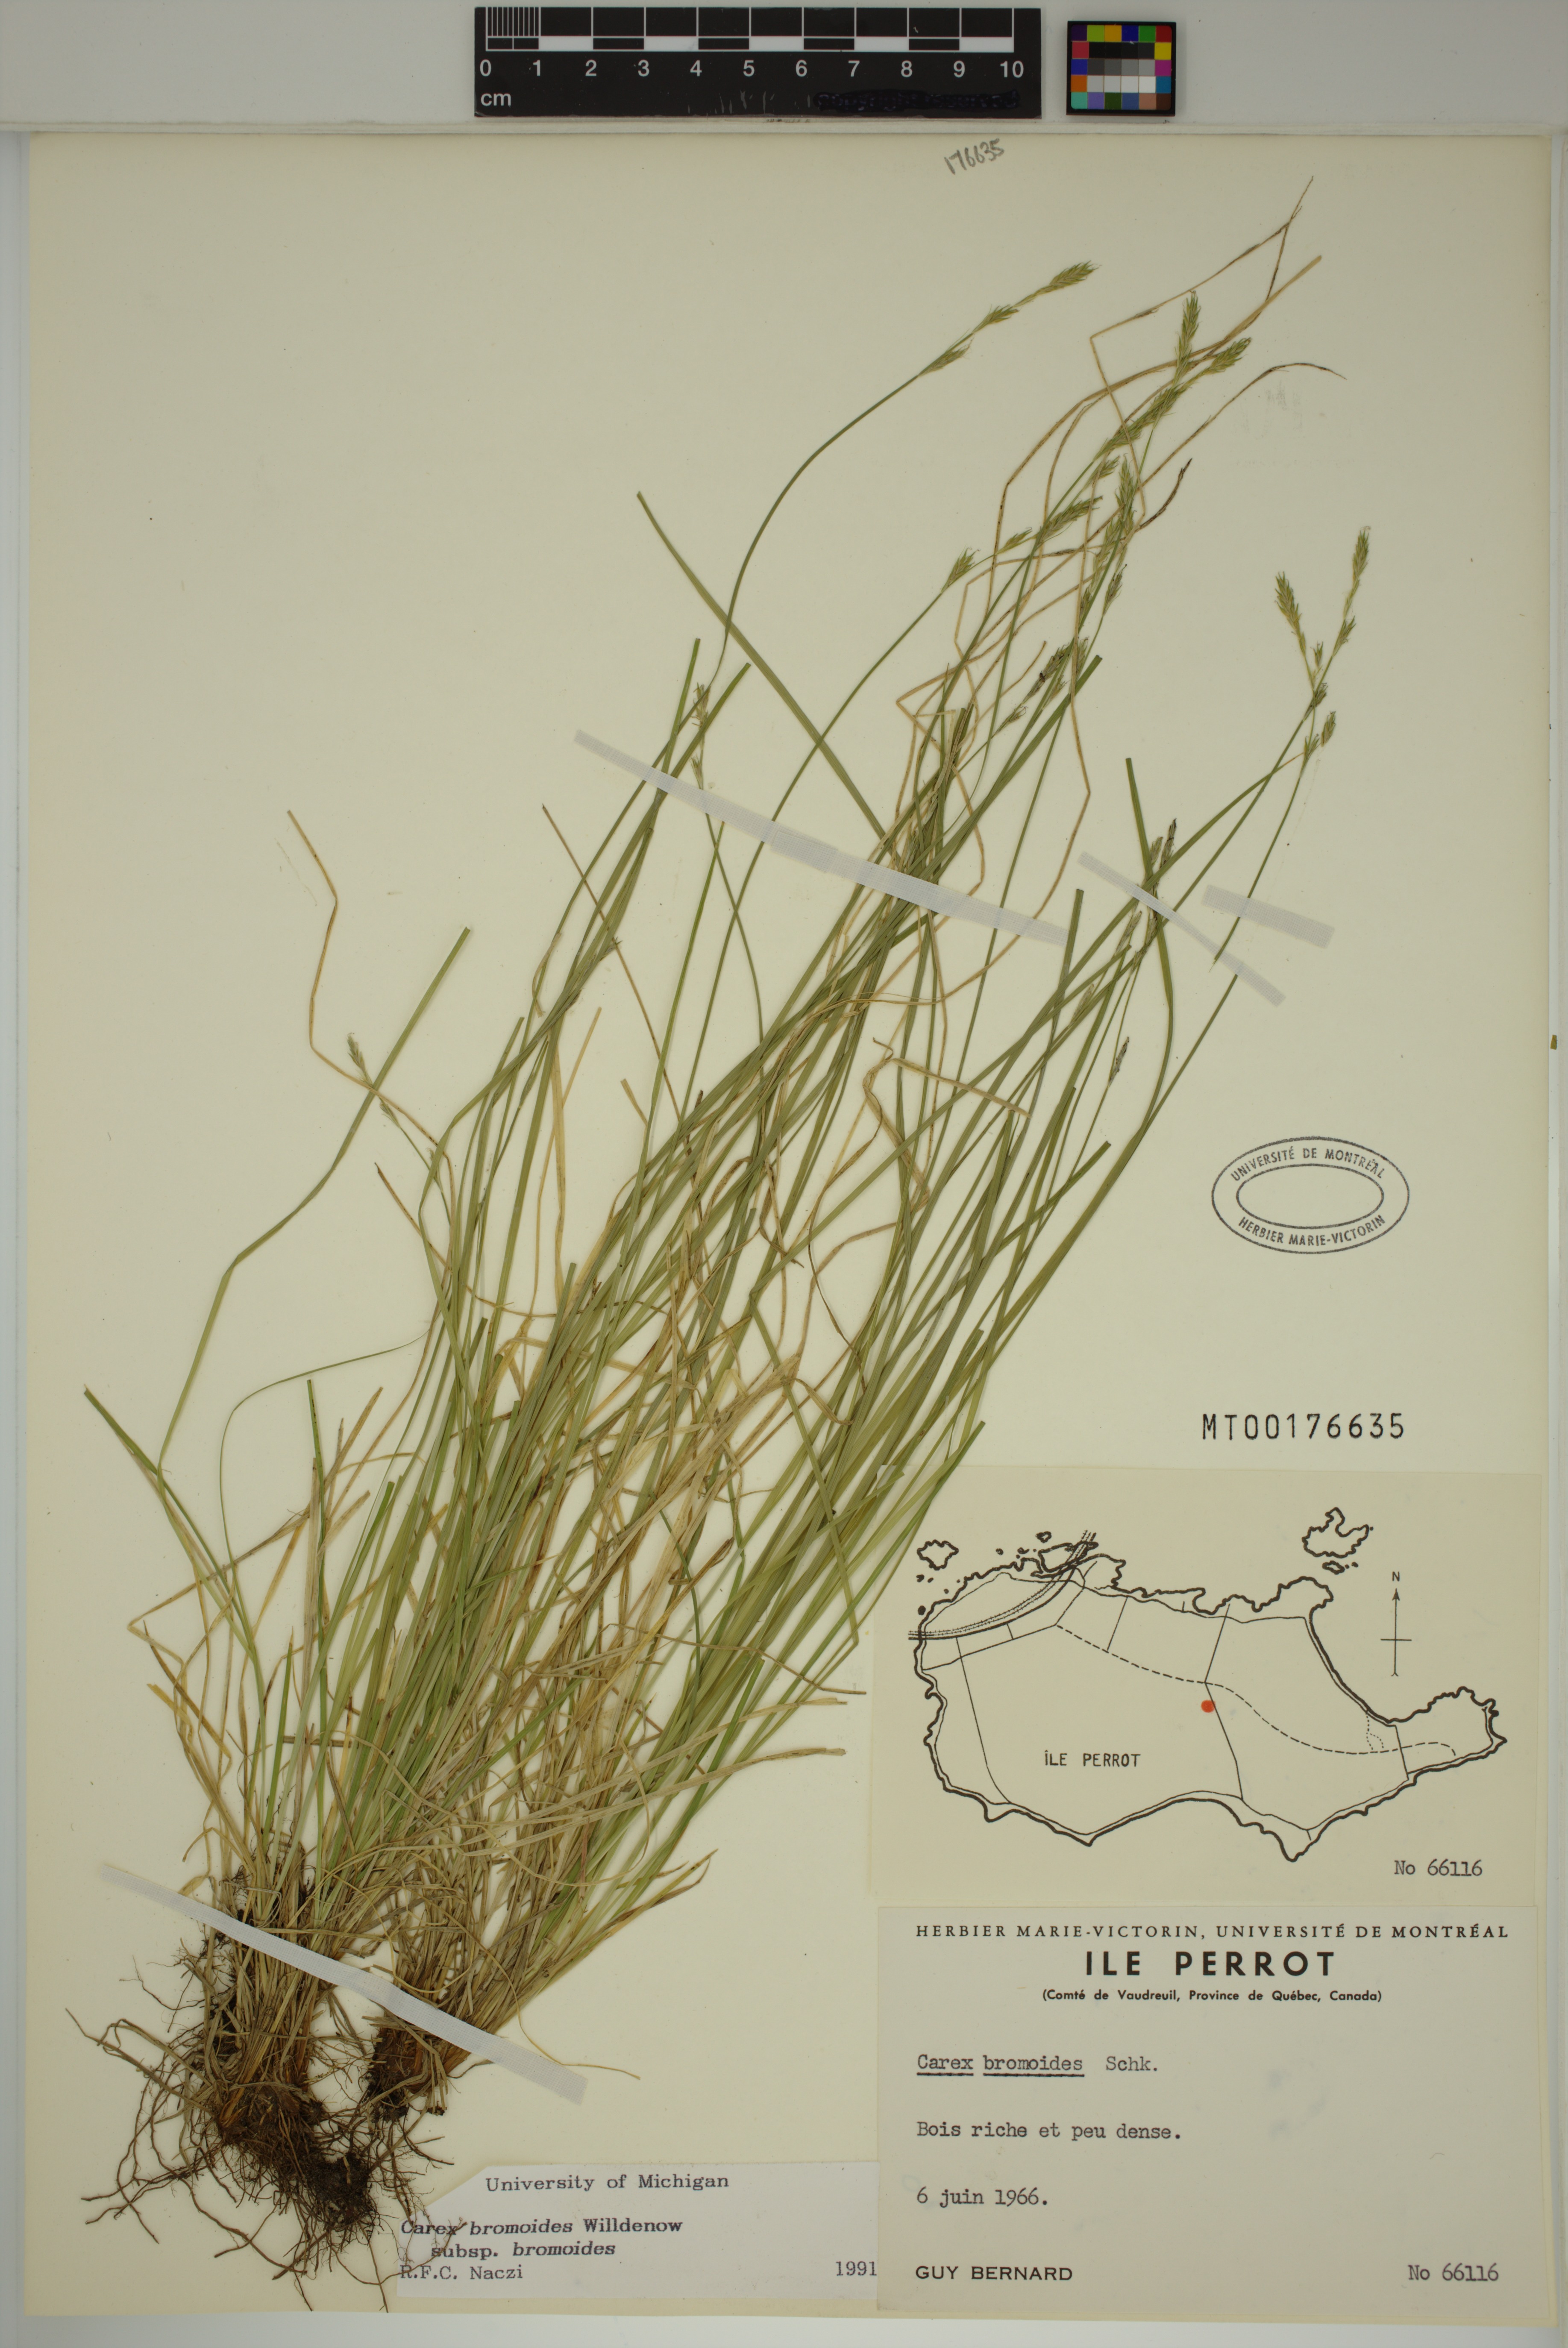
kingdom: Plantae
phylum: Tracheophyta
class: Liliopsida
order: Poales
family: Cyperaceae
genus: Carex
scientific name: Carex bromoides
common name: Brome hummock sedge
